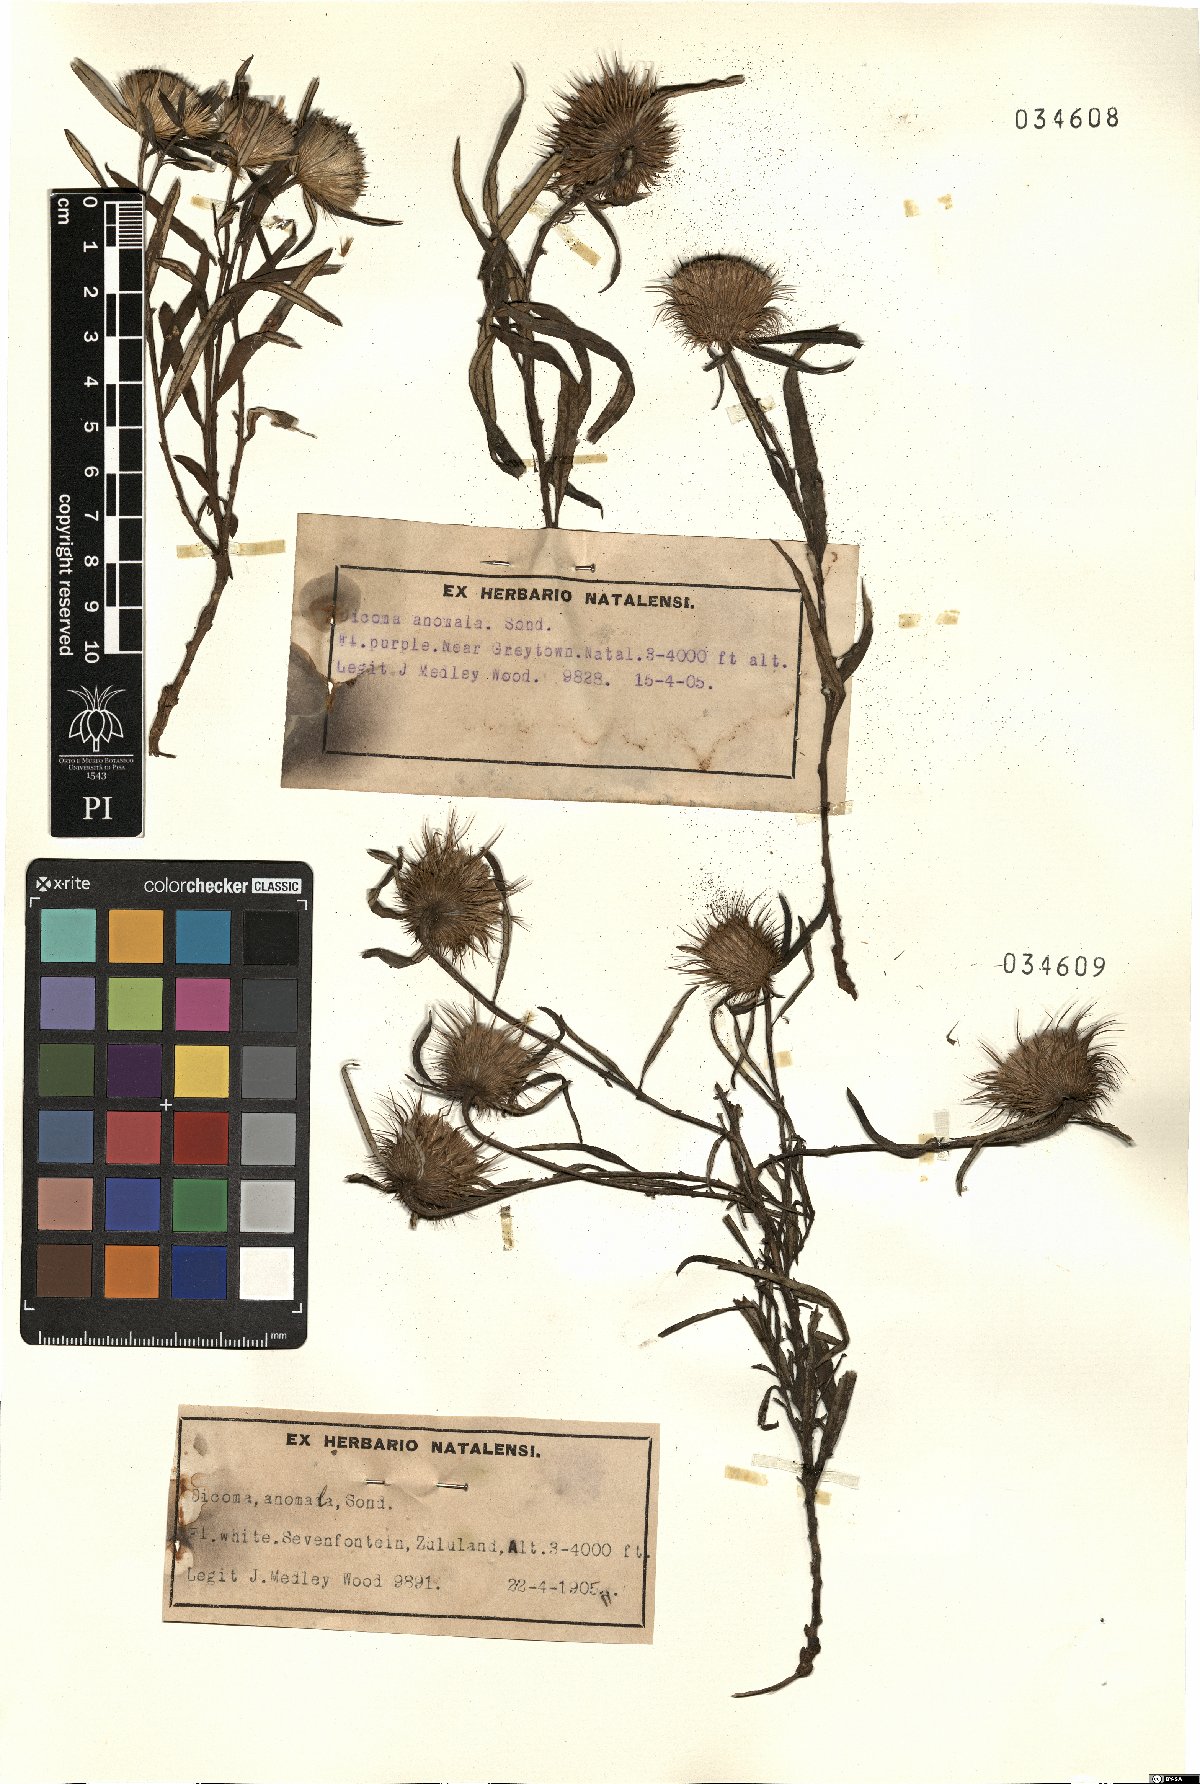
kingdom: Plantae
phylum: Tracheophyta
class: Magnoliopsida
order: Asterales
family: Asteraceae
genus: Dicoma
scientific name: Dicoma anomala
